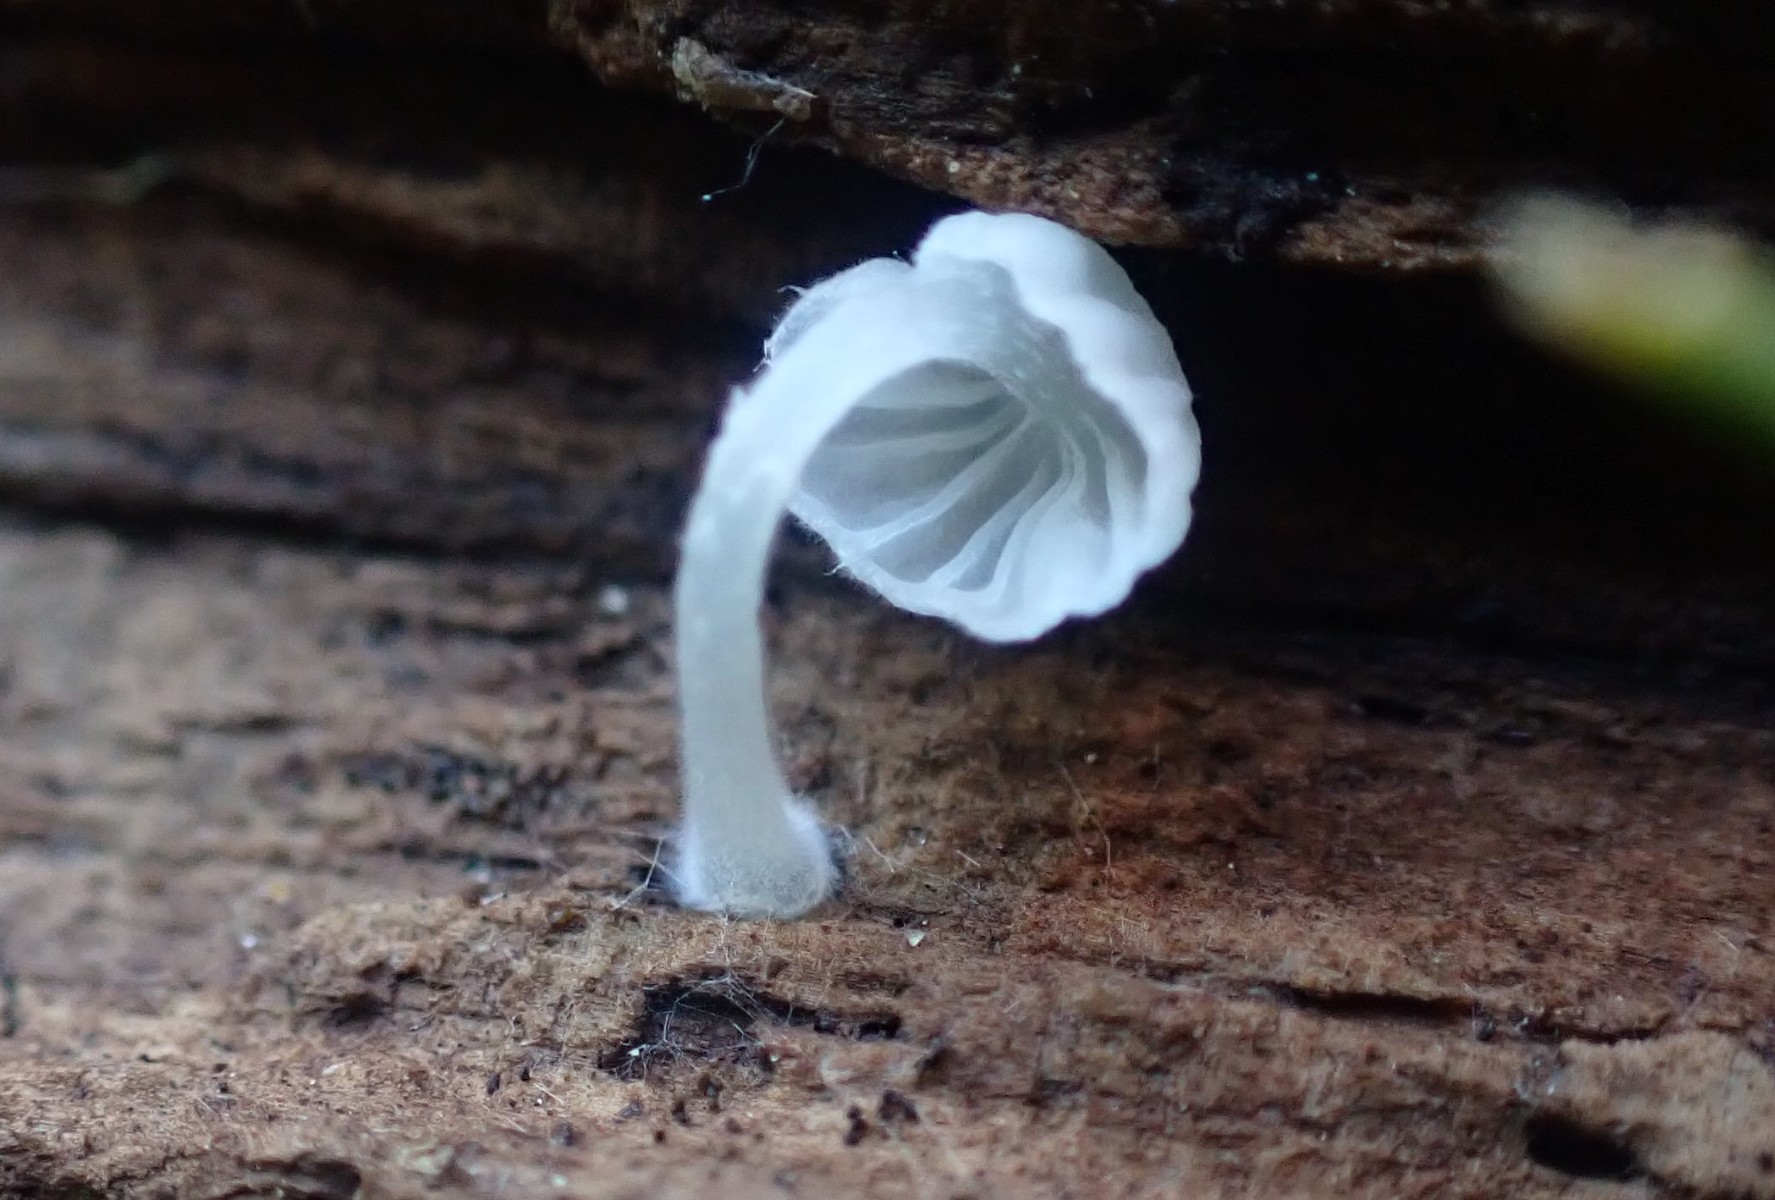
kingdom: Fungi
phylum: Basidiomycota
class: Agaricomycetes
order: Agaricales
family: Tricholomataceae
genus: Delicatula
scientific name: Delicatula integrella
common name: slørhuesvamp
